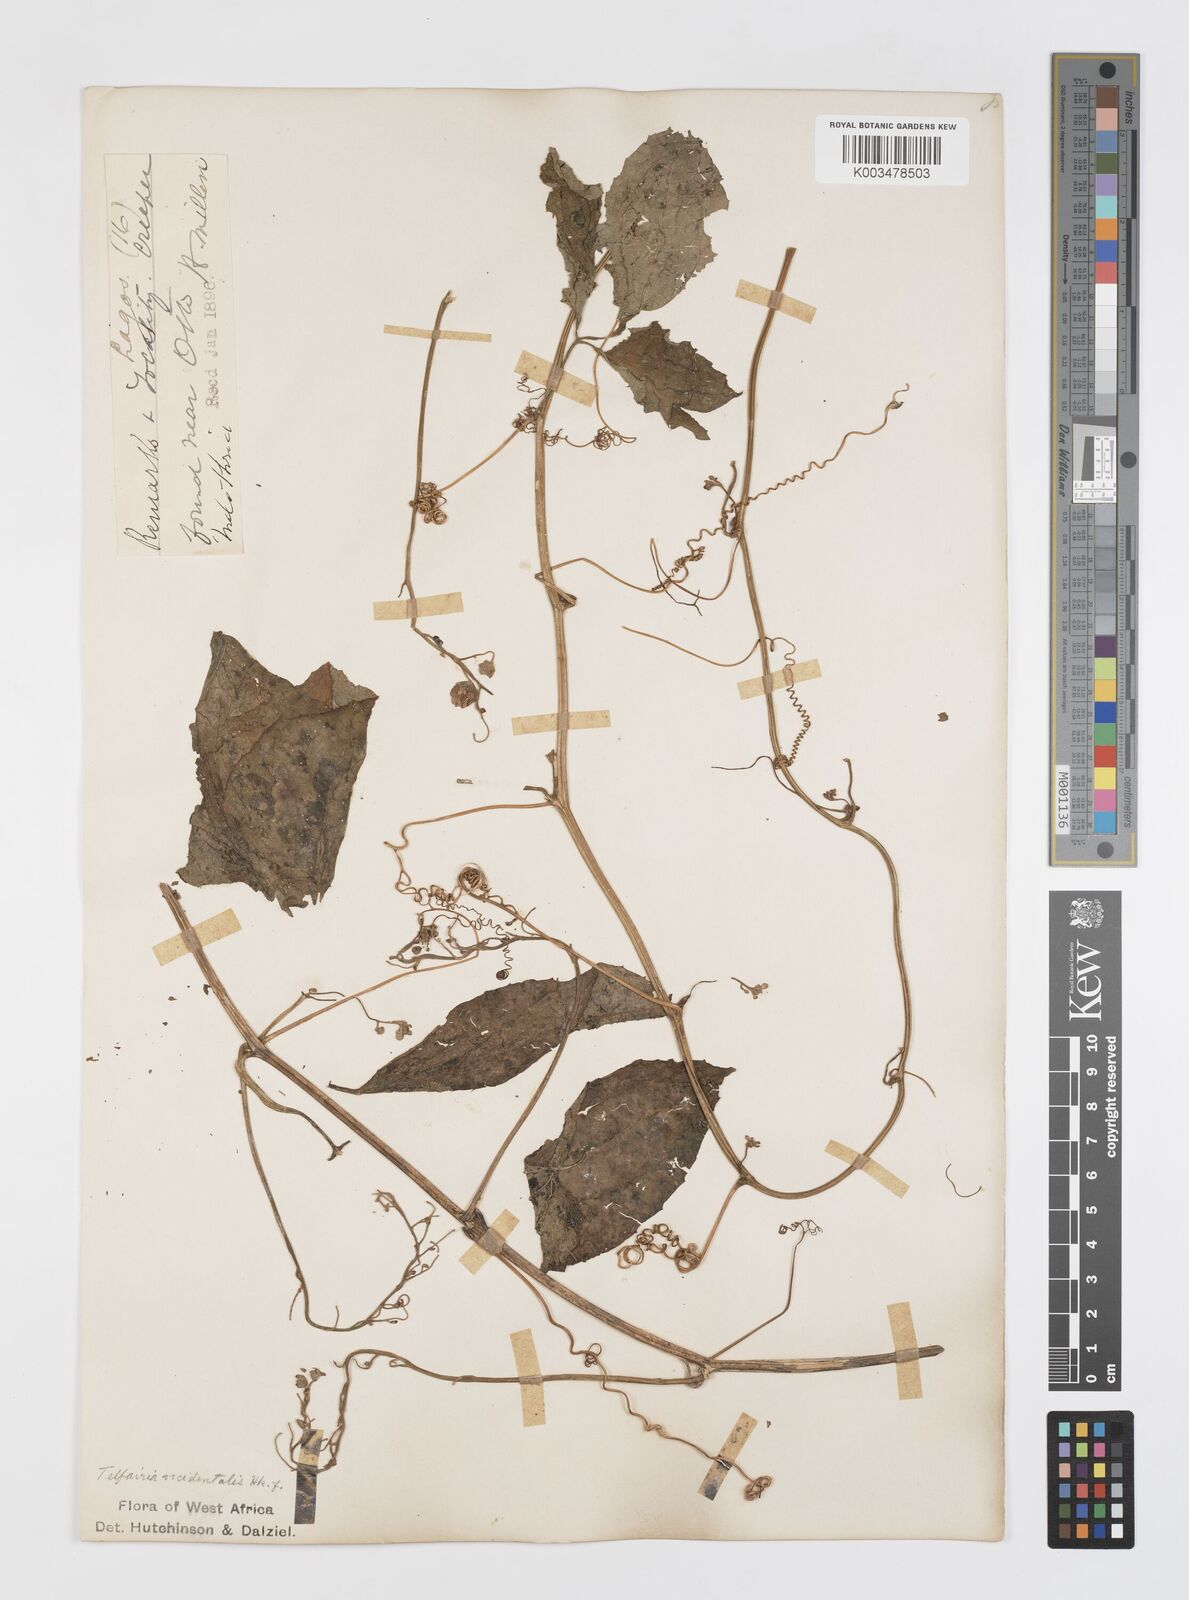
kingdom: Plantae
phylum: Tracheophyta
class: Magnoliopsida
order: Cucurbitales
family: Cucurbitaceae
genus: Telfairia
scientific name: Telfairia occidentalis
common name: Oysternut
